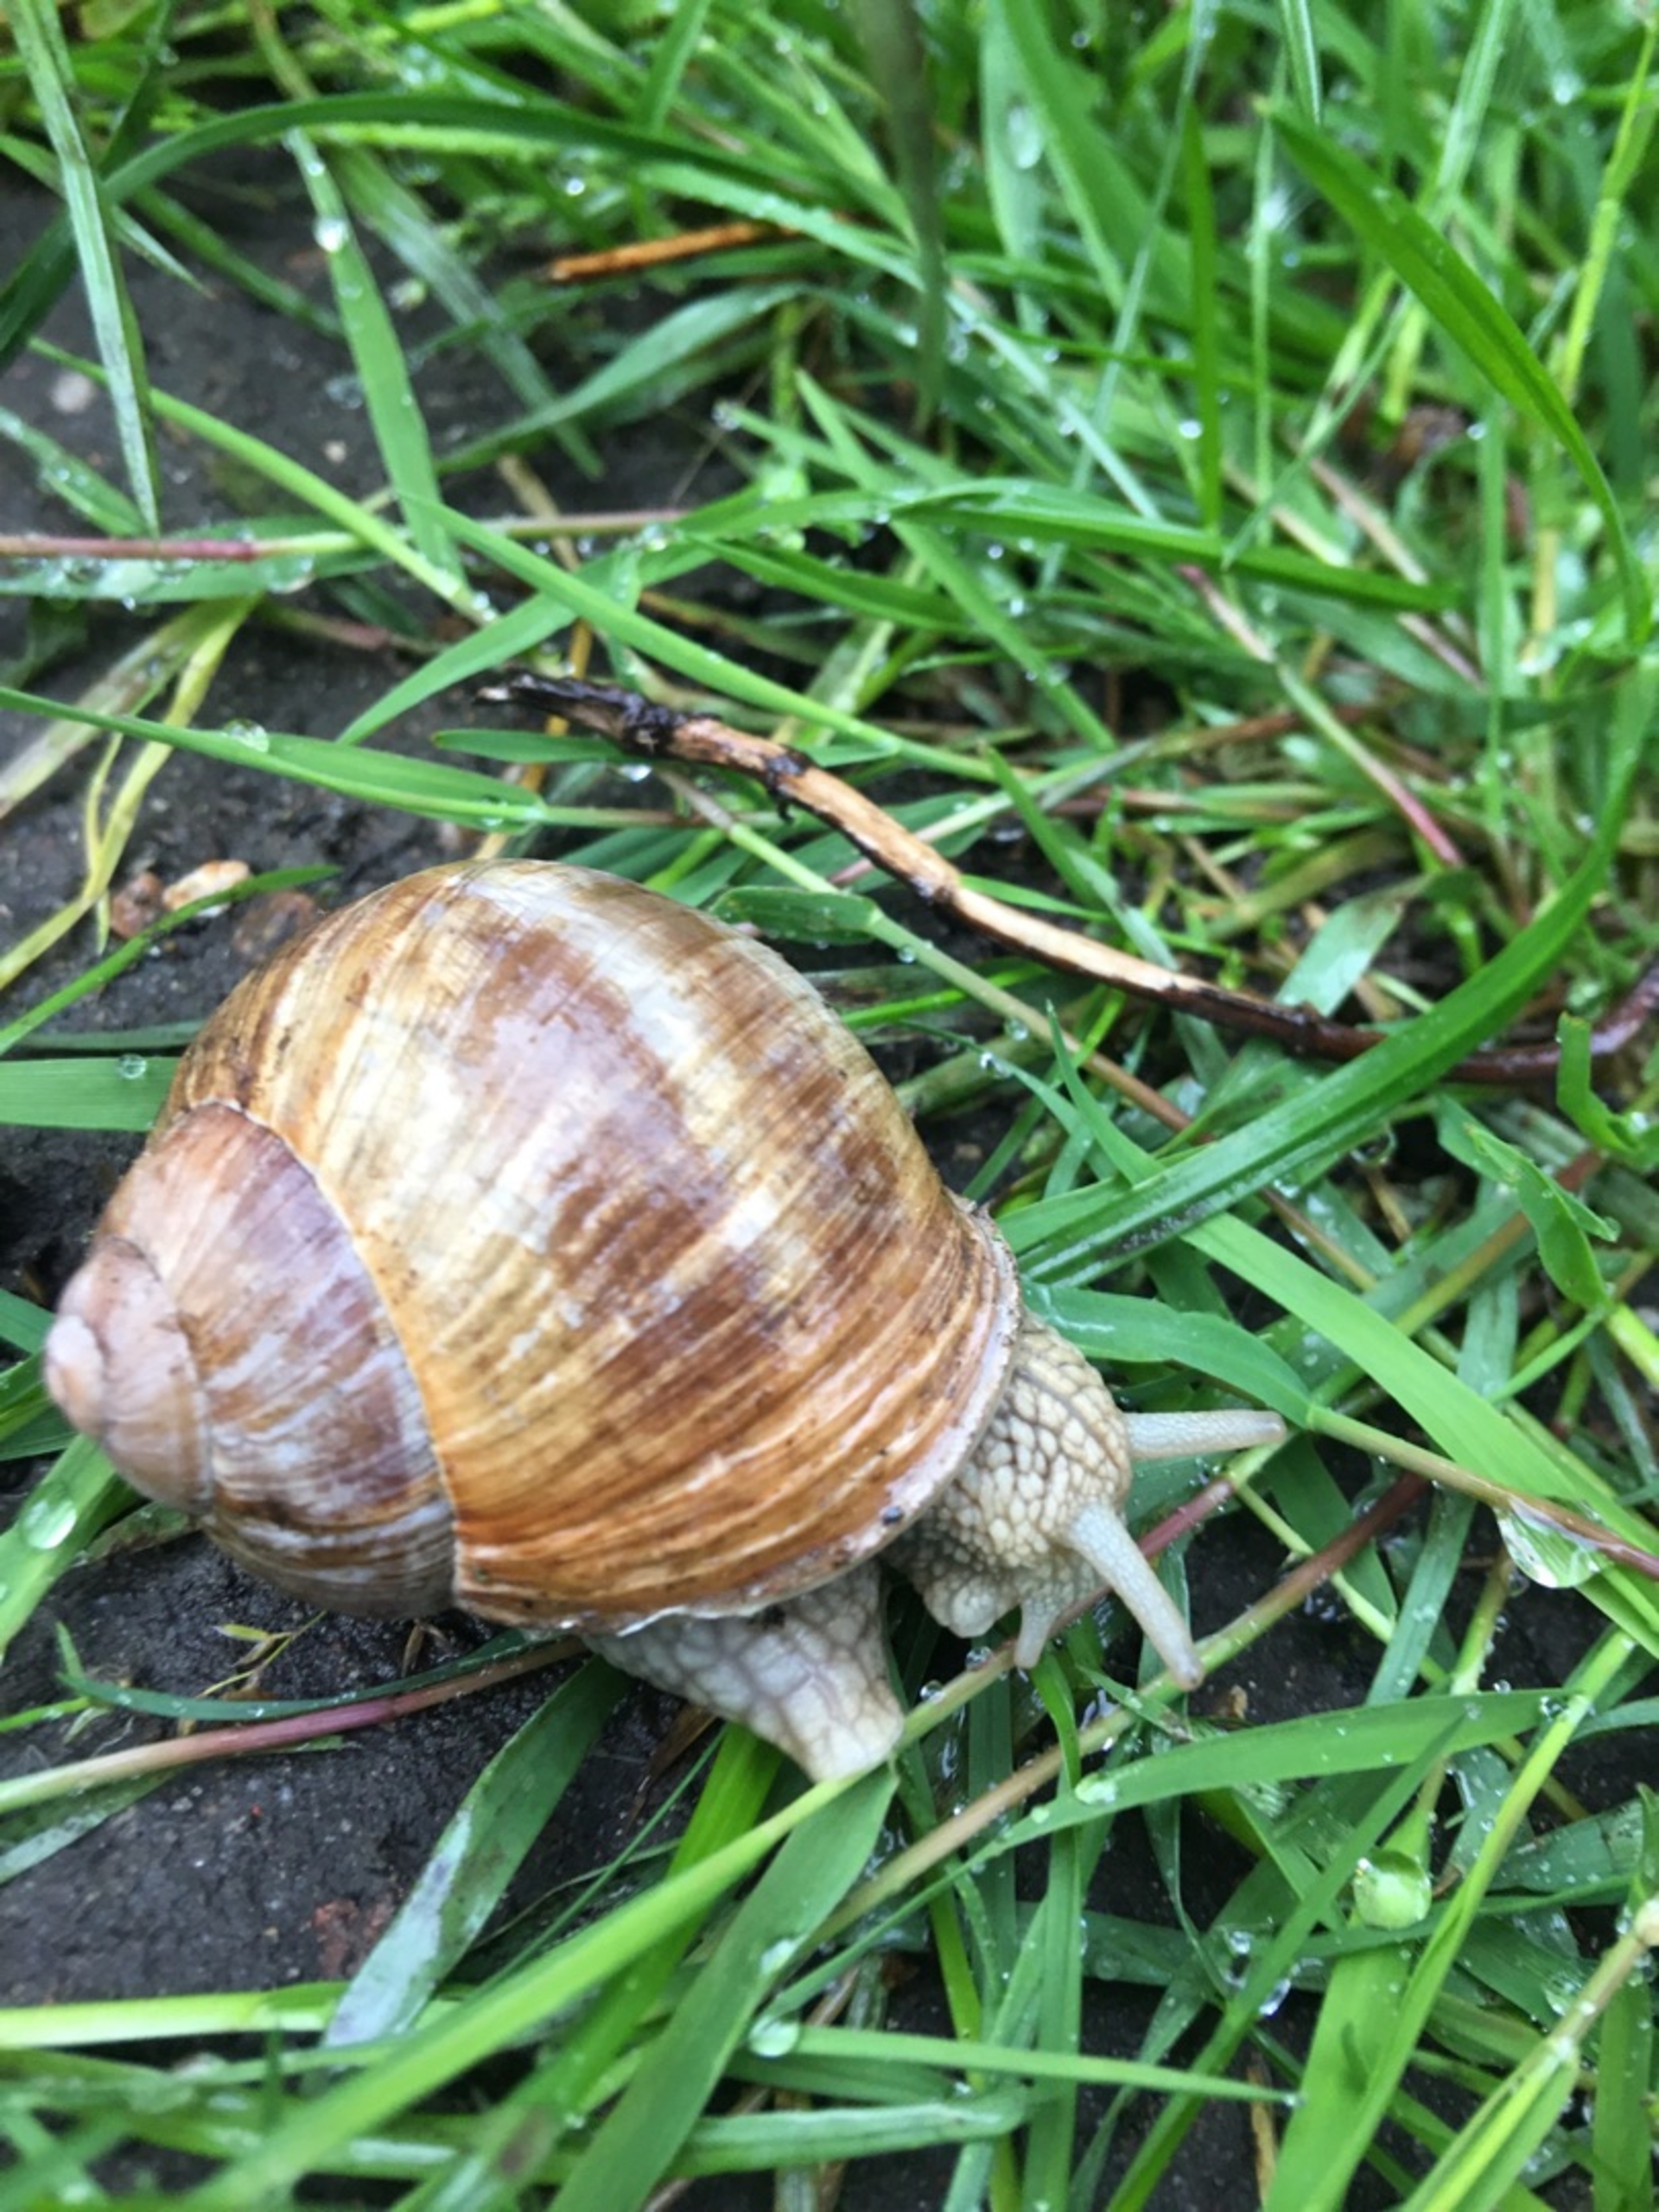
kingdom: Animalia
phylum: Mollusca
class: Gastropoda
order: Stylommatophora
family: Helicidae
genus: Helix
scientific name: Helix pomatia
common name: Vinbjergsnegl
